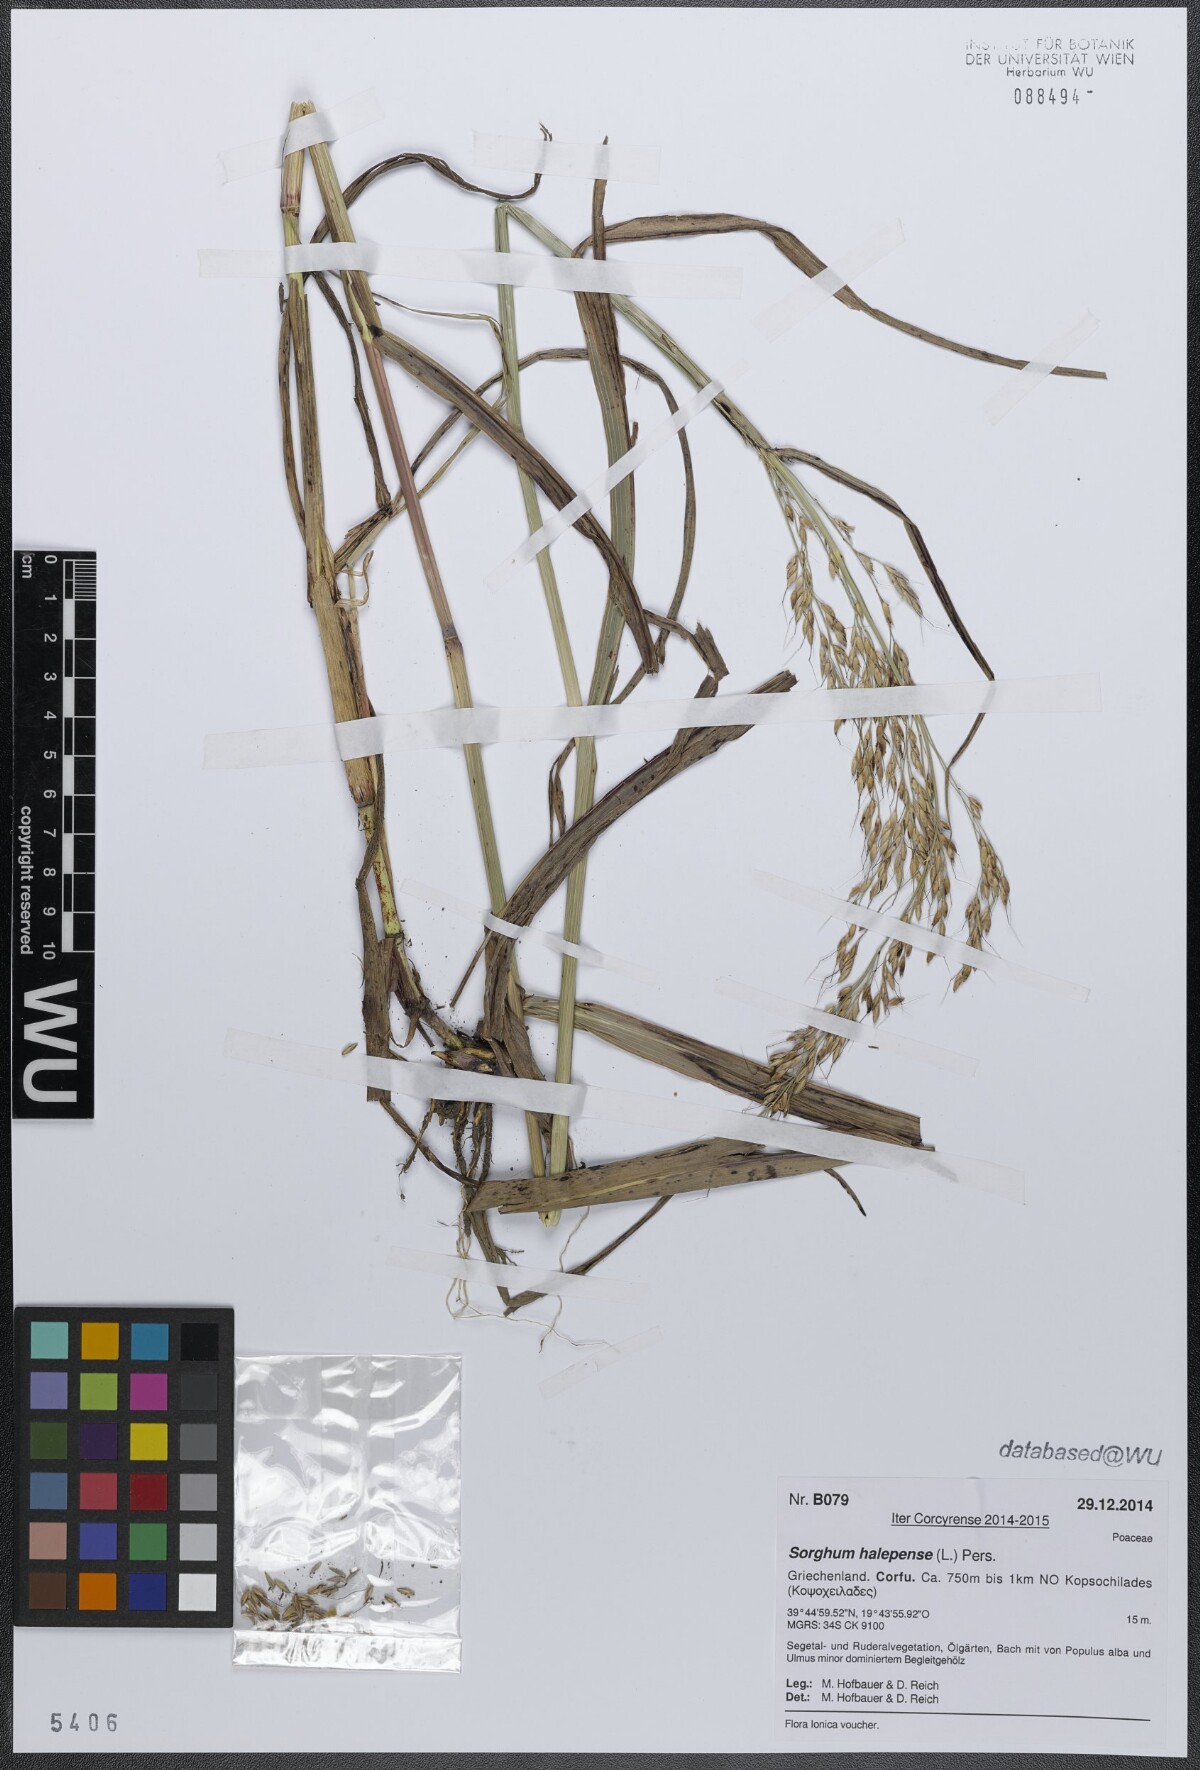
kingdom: Plantae
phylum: Tracheophyta
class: Liliopsida
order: Poales
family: Poaceae
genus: Sorghum
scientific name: Sorghum halepense
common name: Johnson-grass
